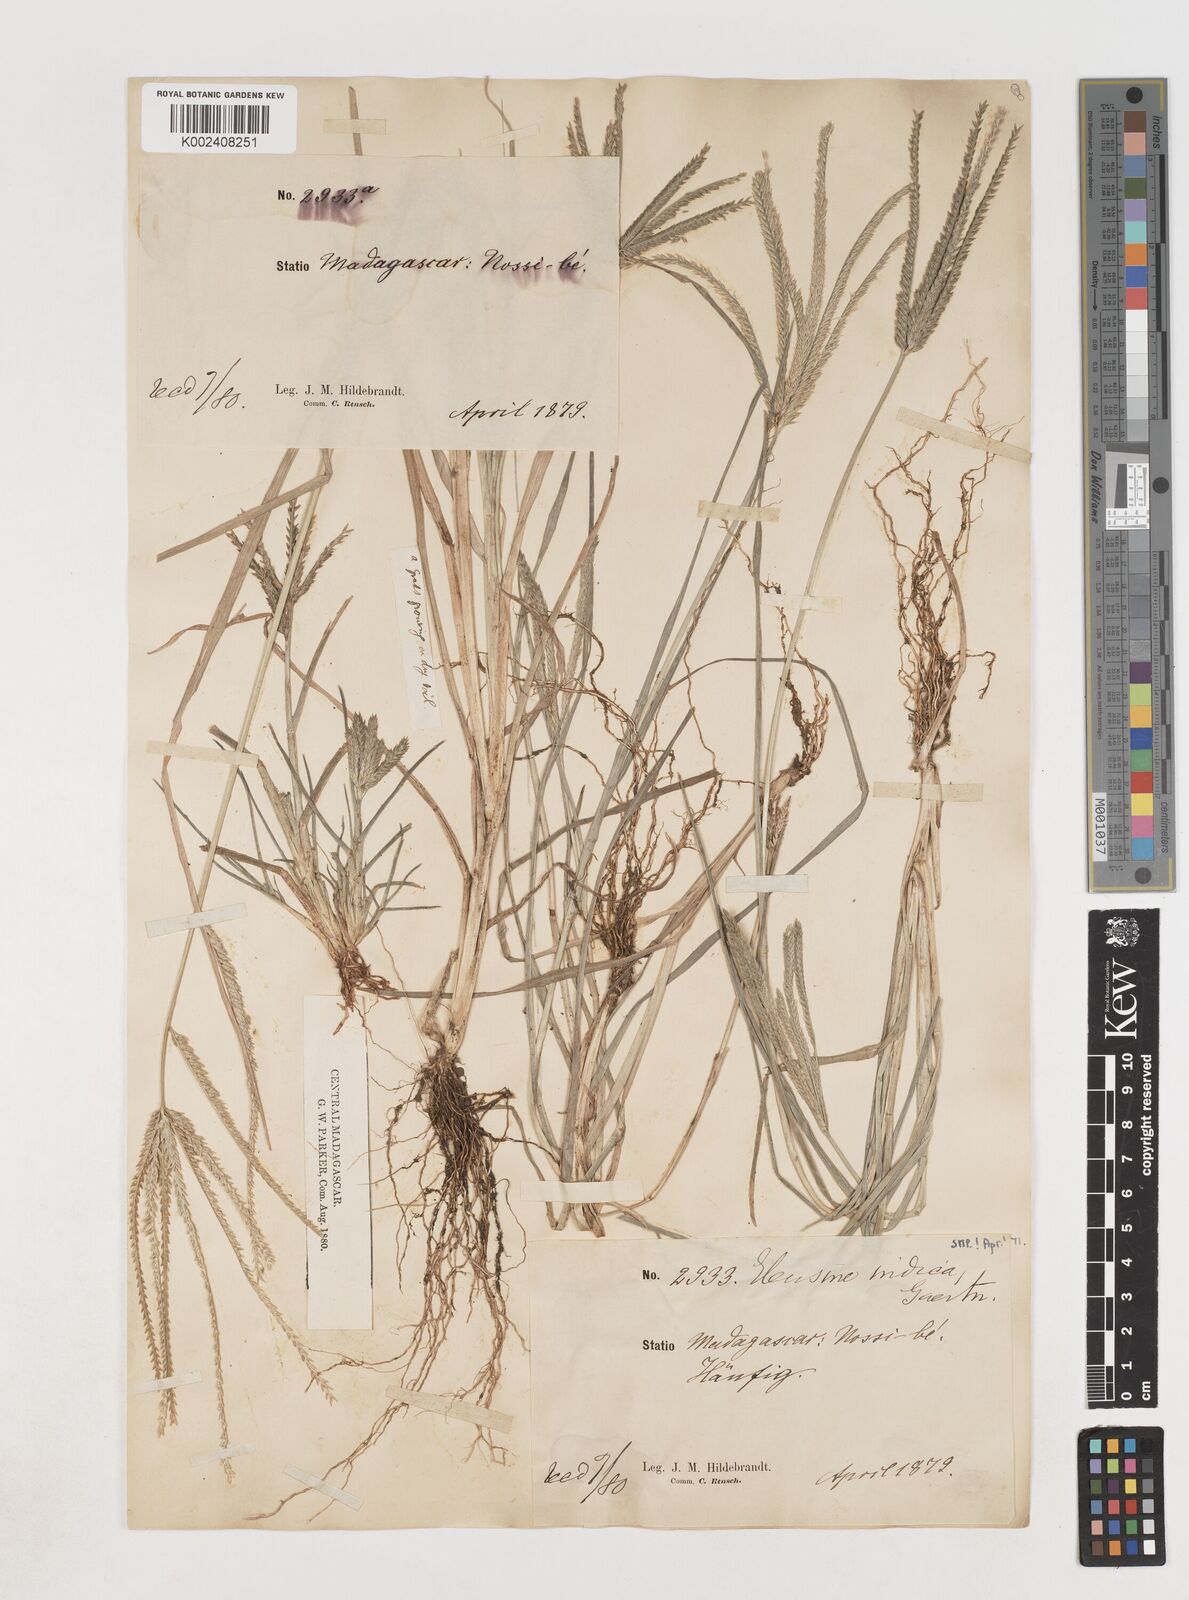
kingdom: Plantae
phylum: Tracheophyta
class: Liliopsida
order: Poales
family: Poaceae
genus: Eleusine
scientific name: Eleusine indica
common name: Yard-grass
